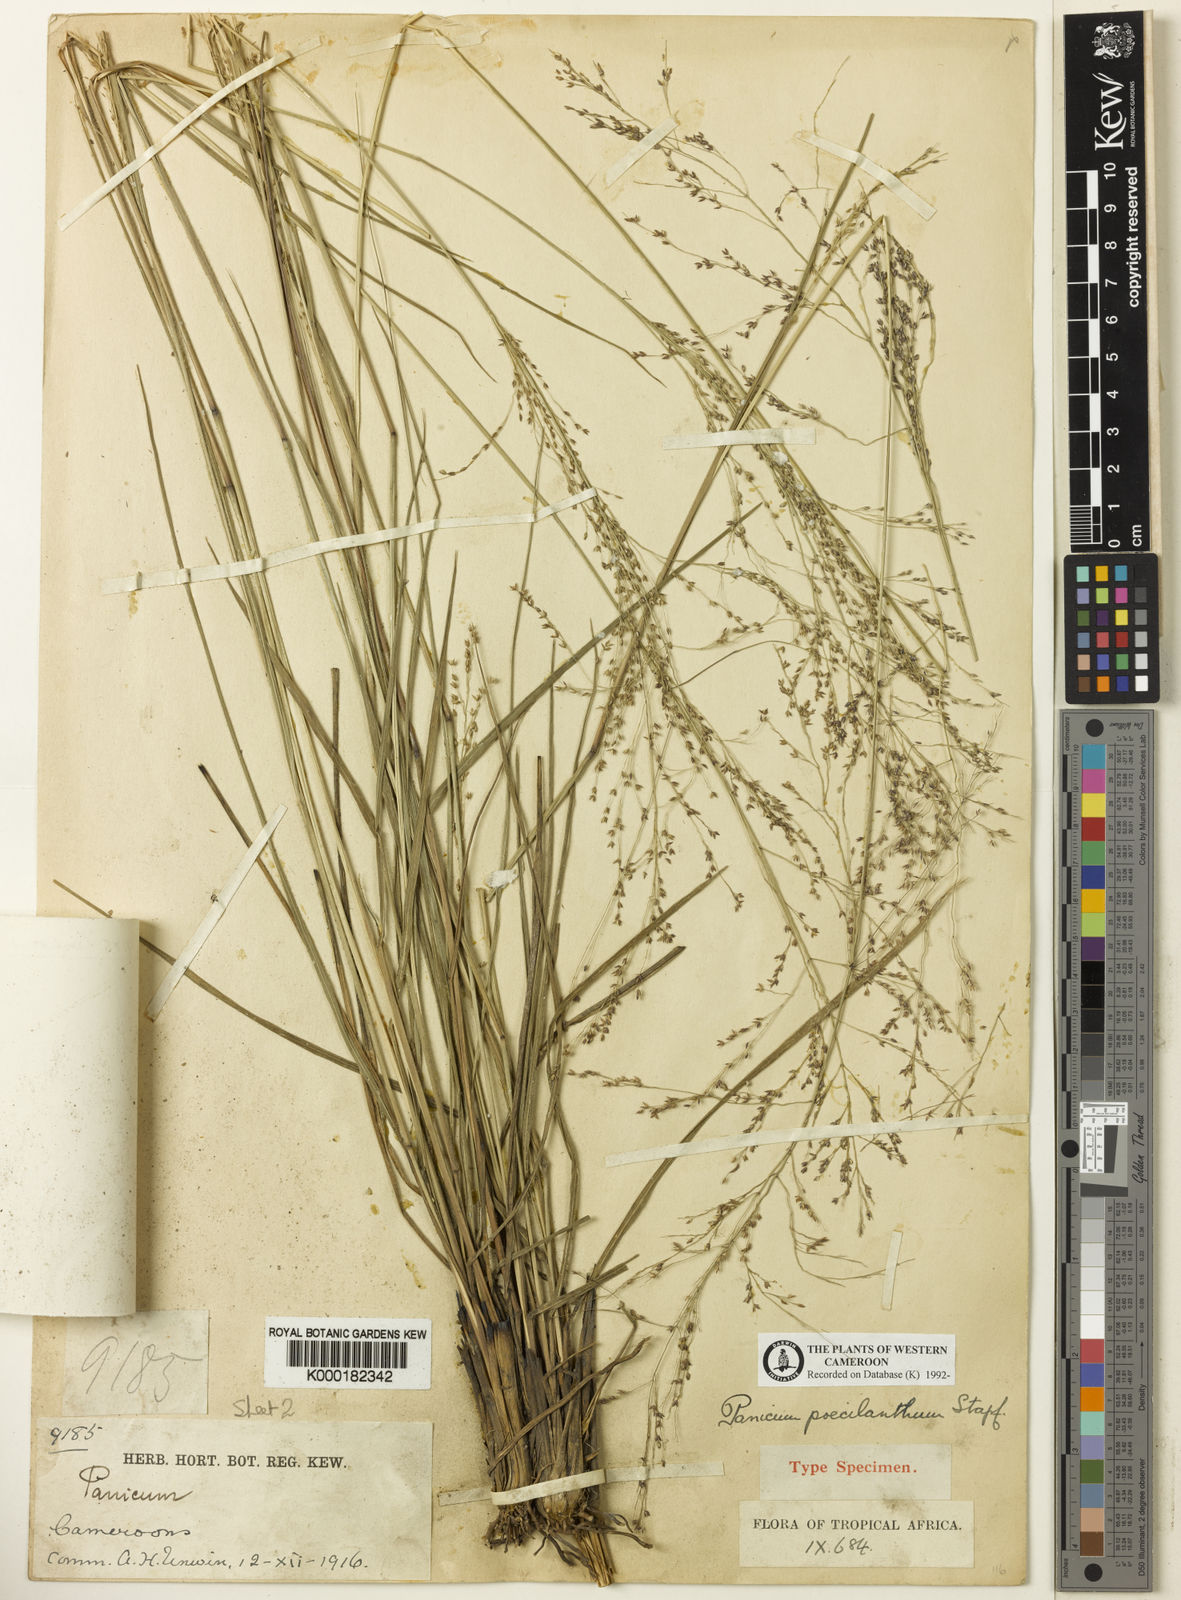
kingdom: Plantae
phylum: Tracheophyta
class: Liliopsida
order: Poales
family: Poaceae
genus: Panicum
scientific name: Panicum dregeanum
